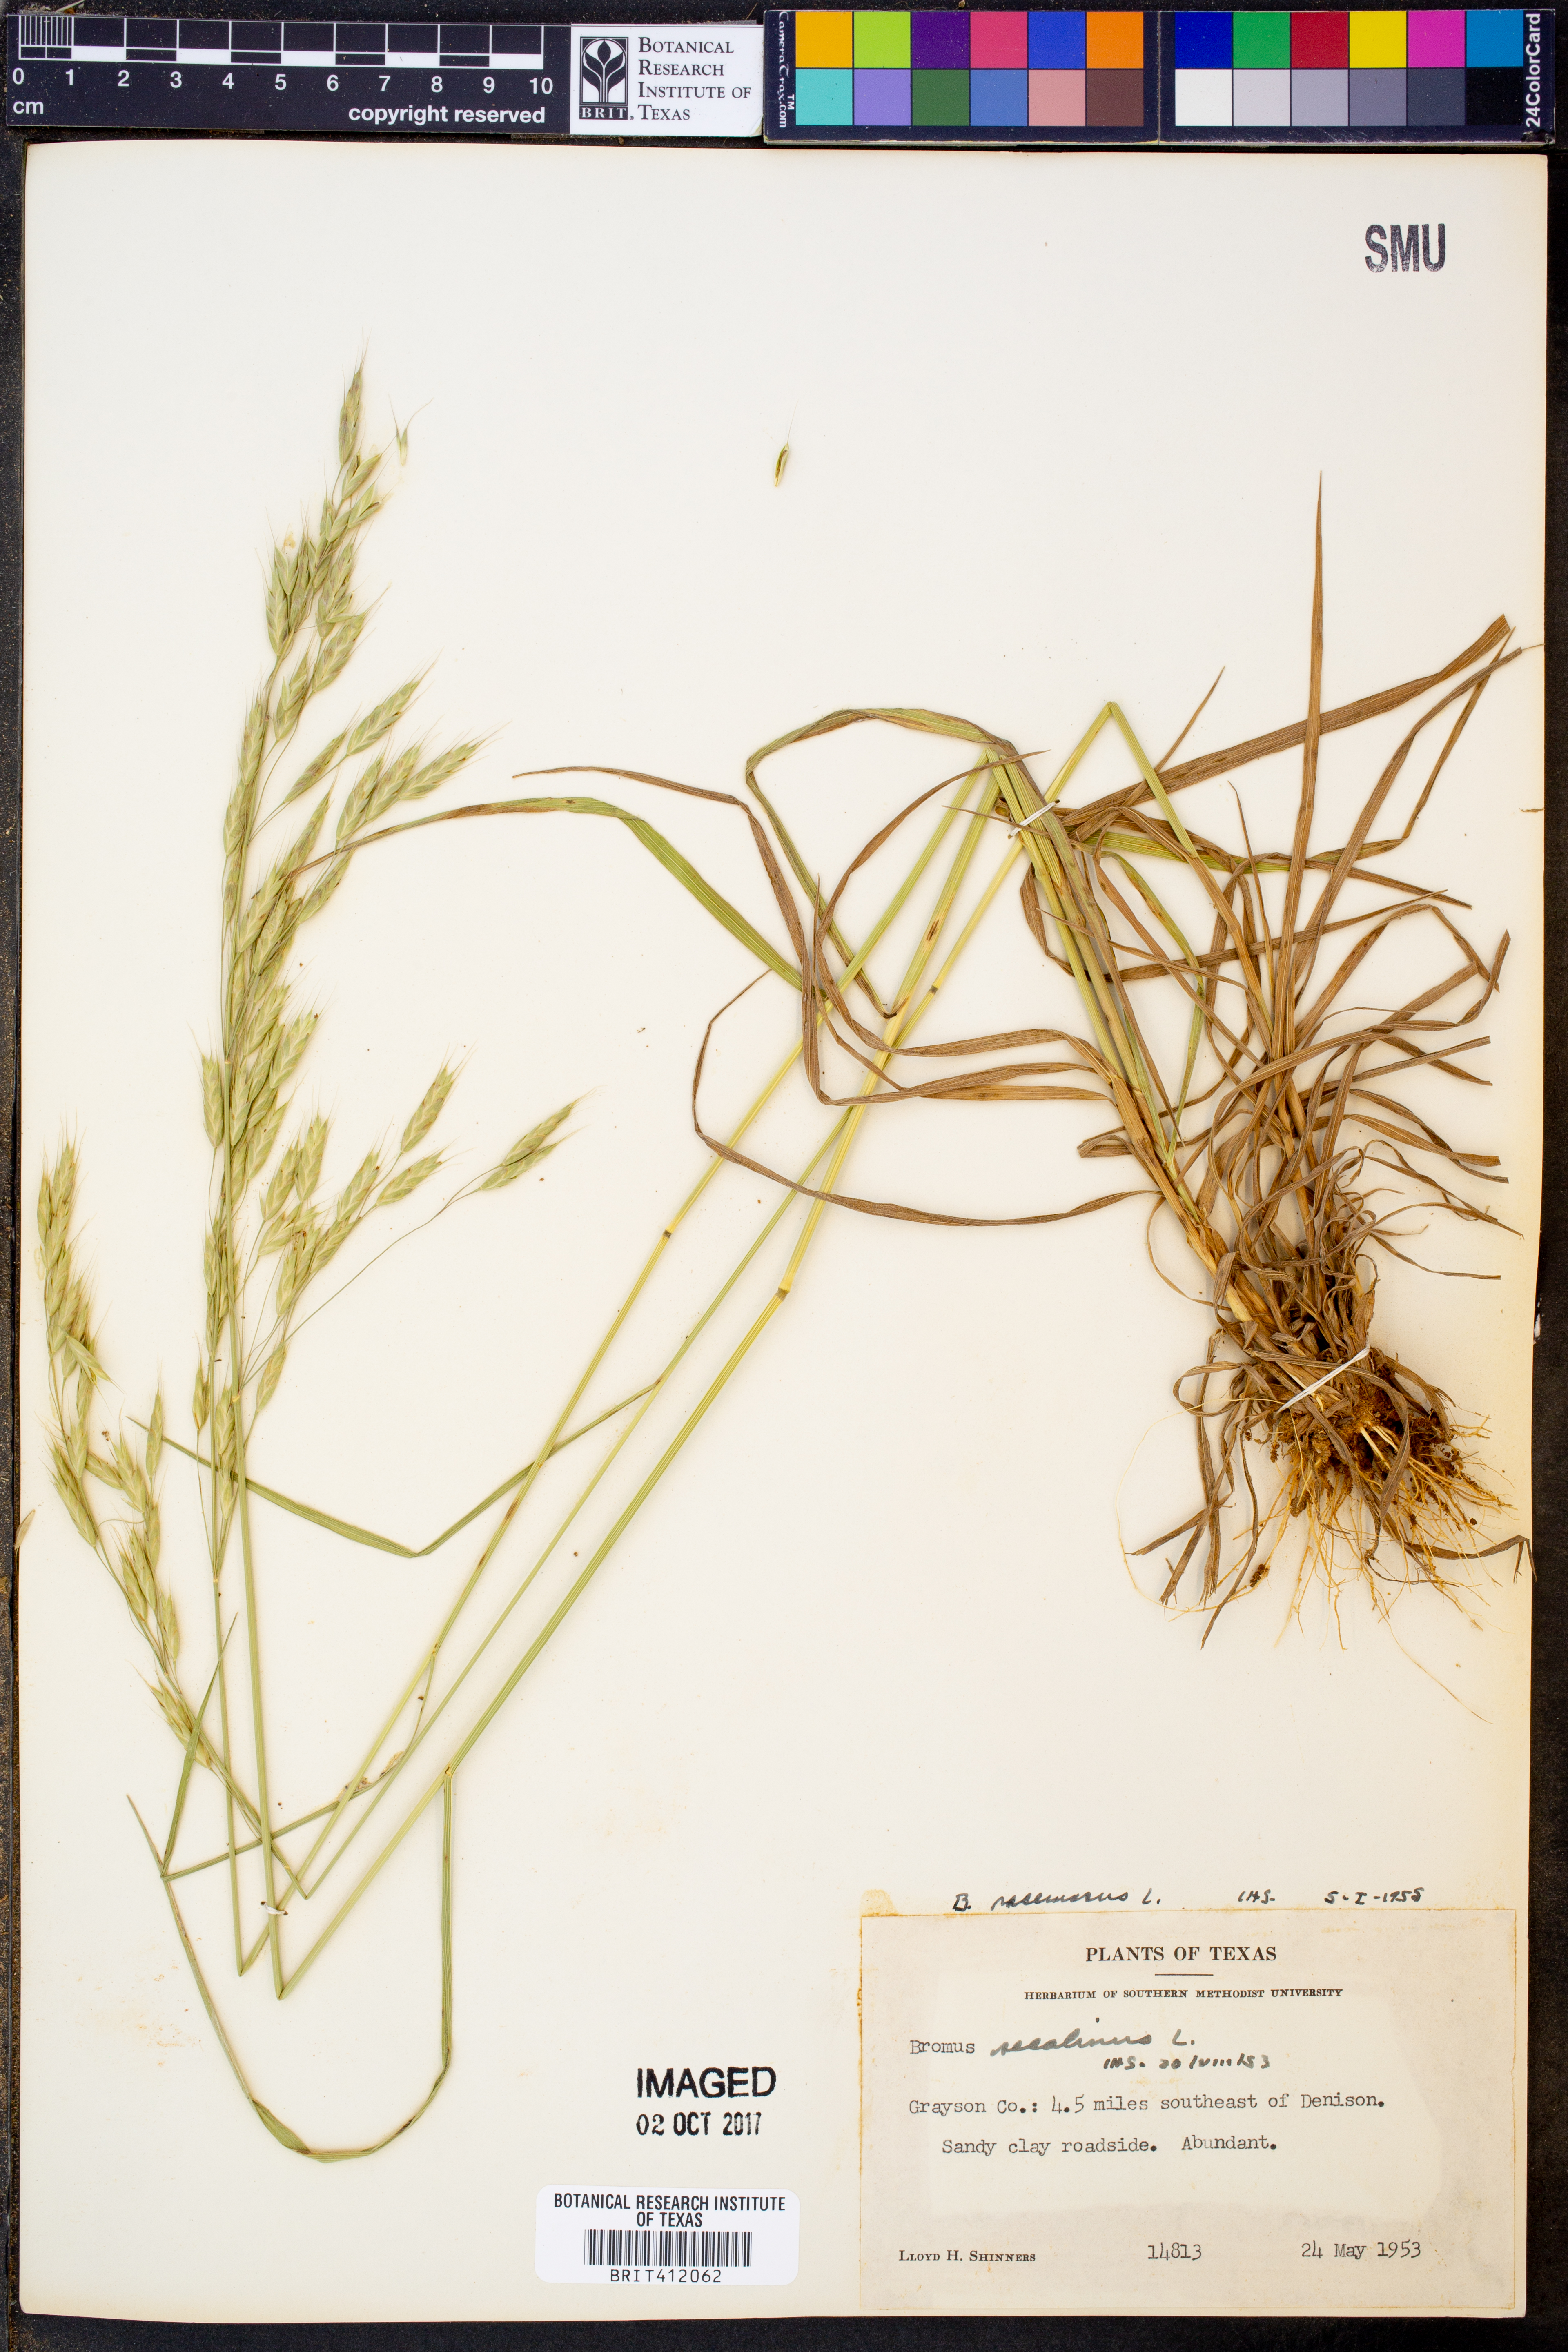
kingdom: Plantae
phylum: Tracheophyta
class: Liliopsida
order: Poales
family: Poaceae
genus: Bromus
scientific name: Bromus racemosus
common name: Bald brome
